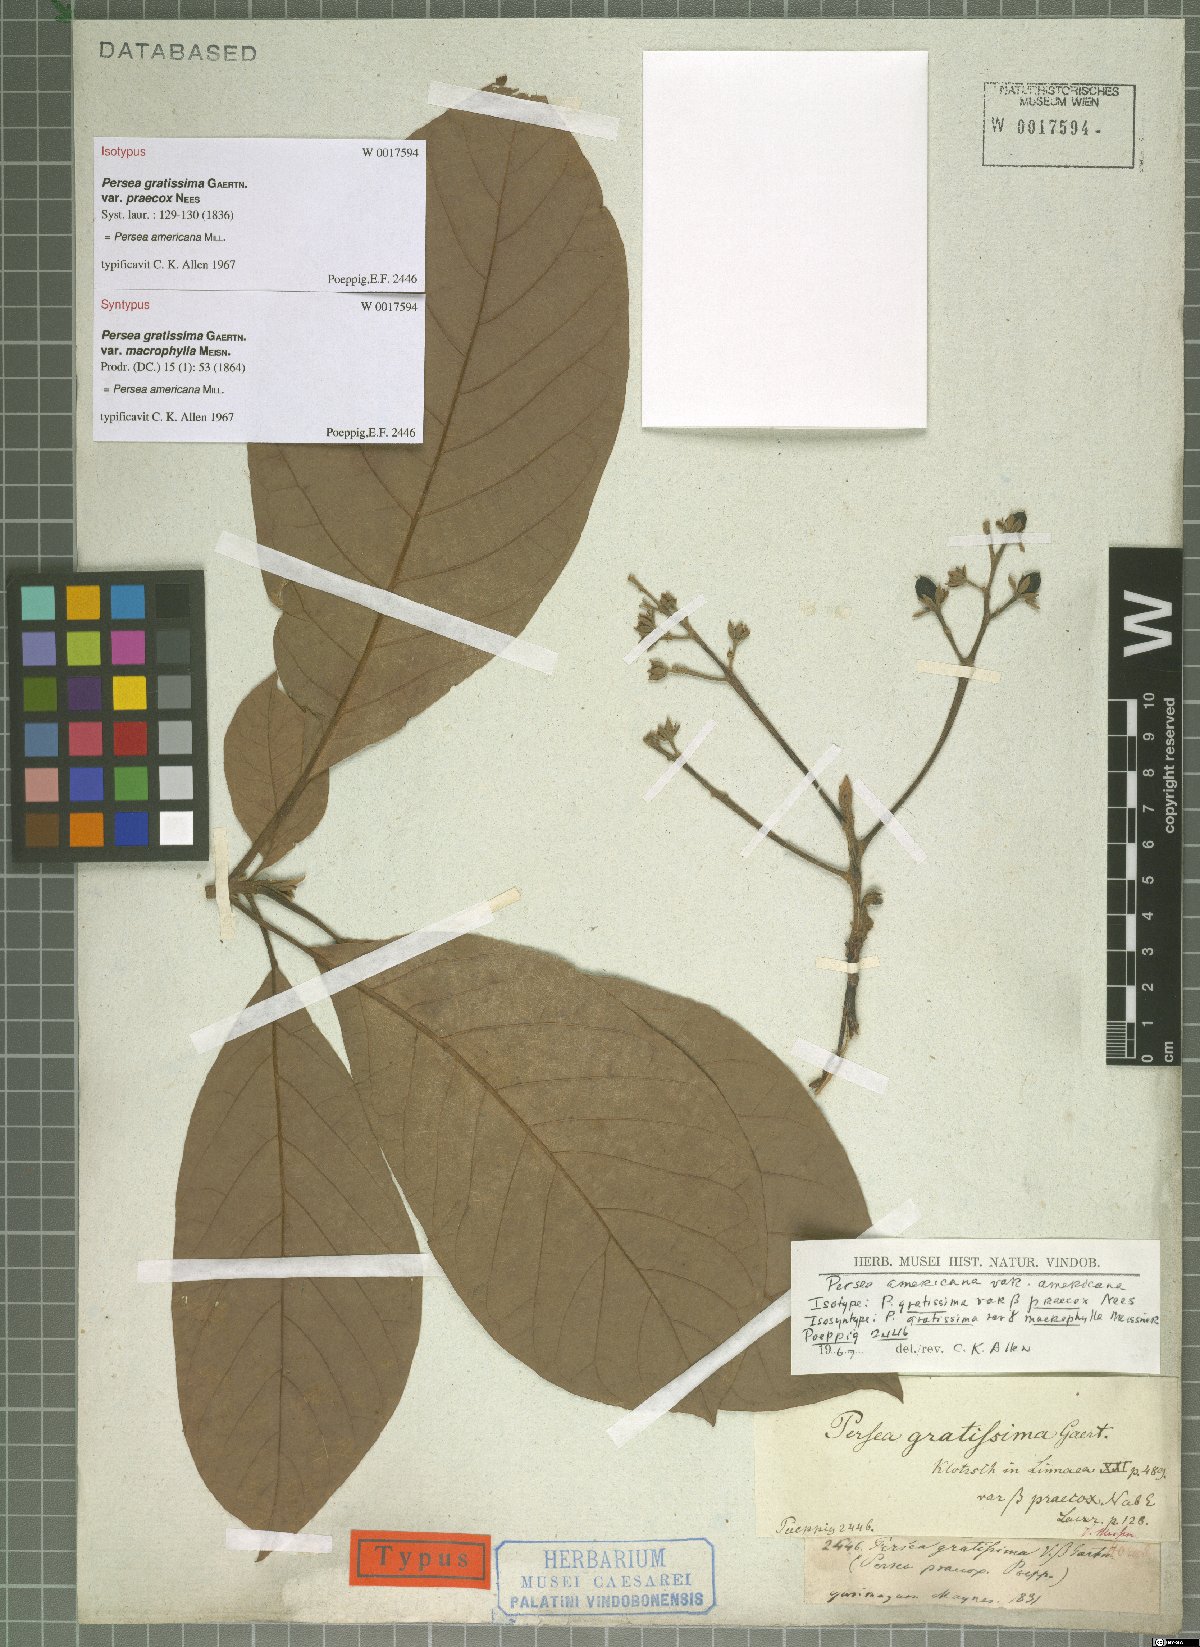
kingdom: Plantae
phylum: Tracheophyta
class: Magnoliopsida
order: Laurales
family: Lauraceae
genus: Persea
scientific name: Persea americana
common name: Avocado
